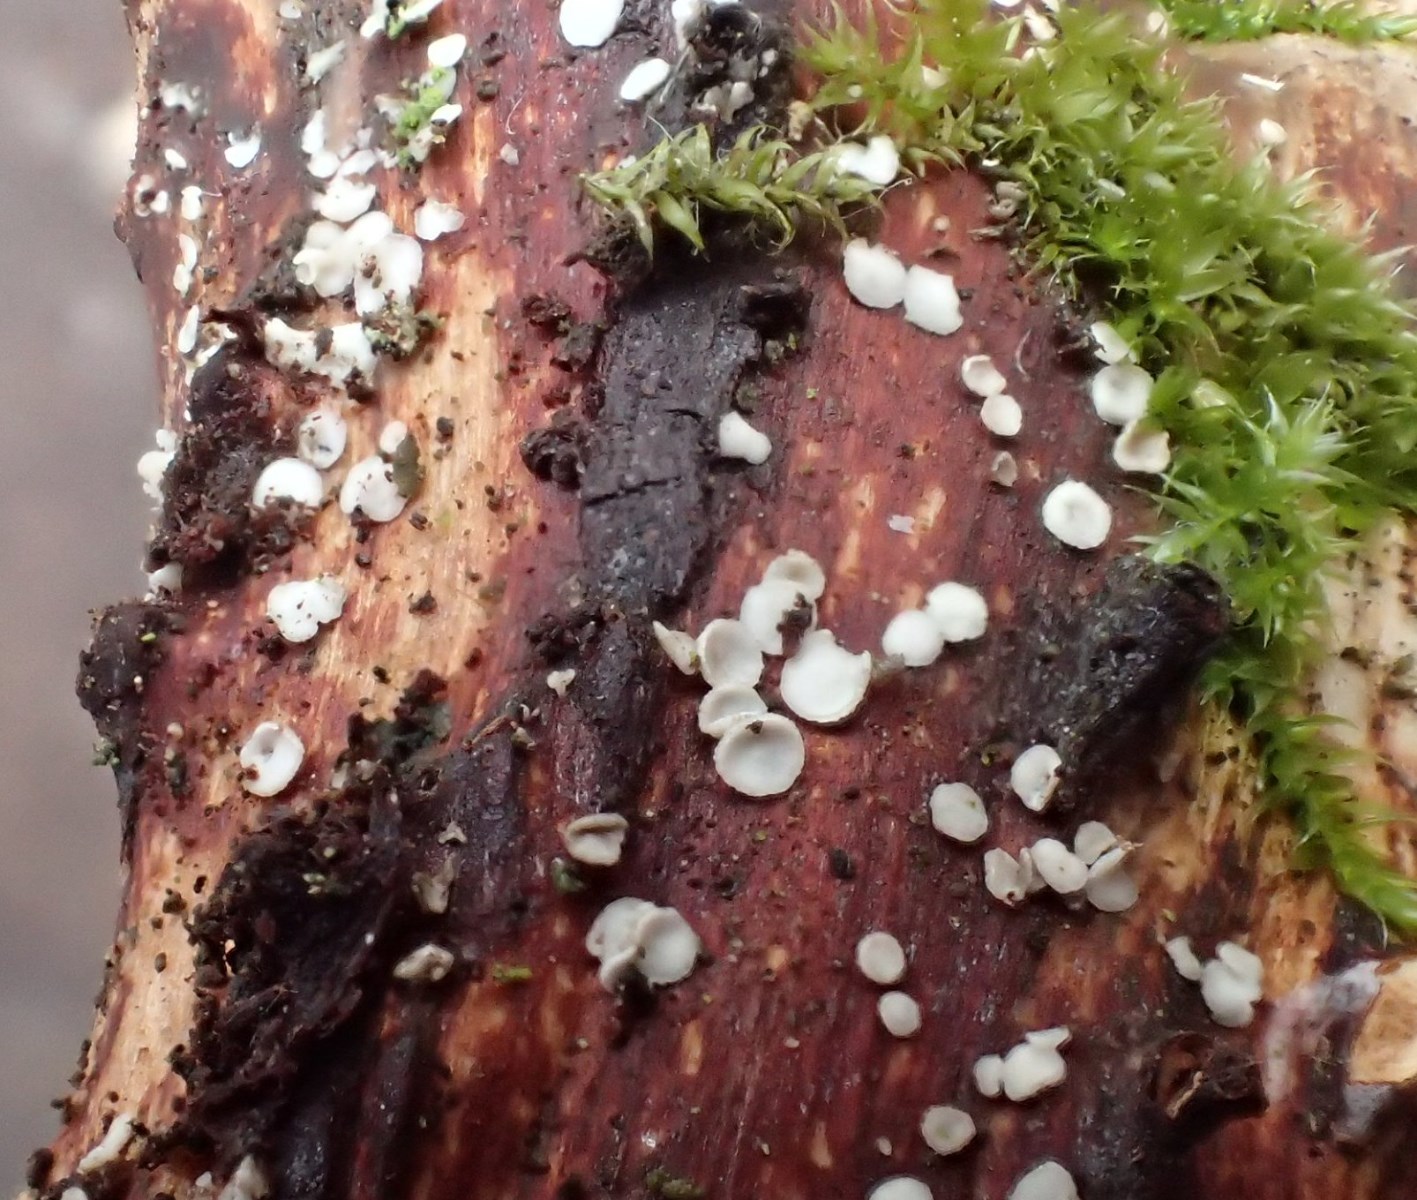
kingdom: Fungi
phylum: Ascomycota
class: Leotiomycetes
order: Helotiales
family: Pezizellaceae
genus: Calycina
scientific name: Calycina vulgaris
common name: pølsesporet gulskive
